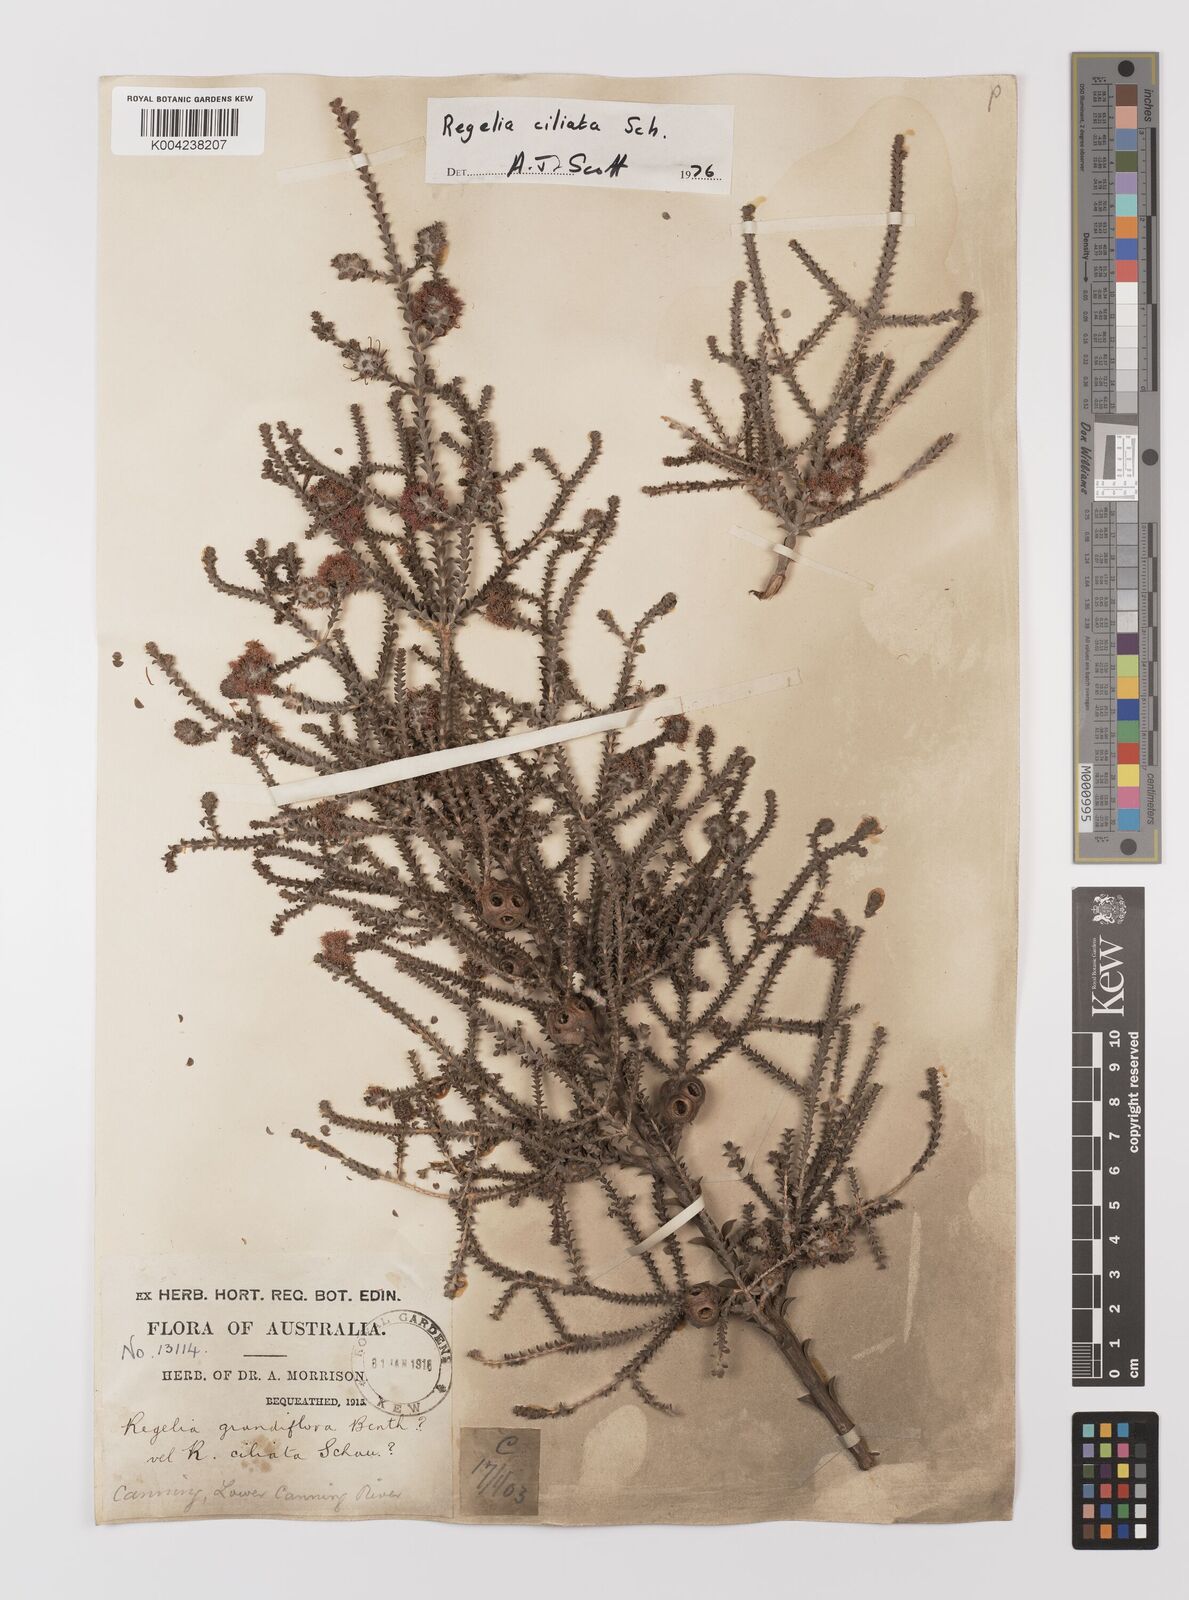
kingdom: Plantae
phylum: Tracheophyta
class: Magnoliopsida
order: Myrtales
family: Myrtaceae
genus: Melaleuca
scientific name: Melaleuca crossota
